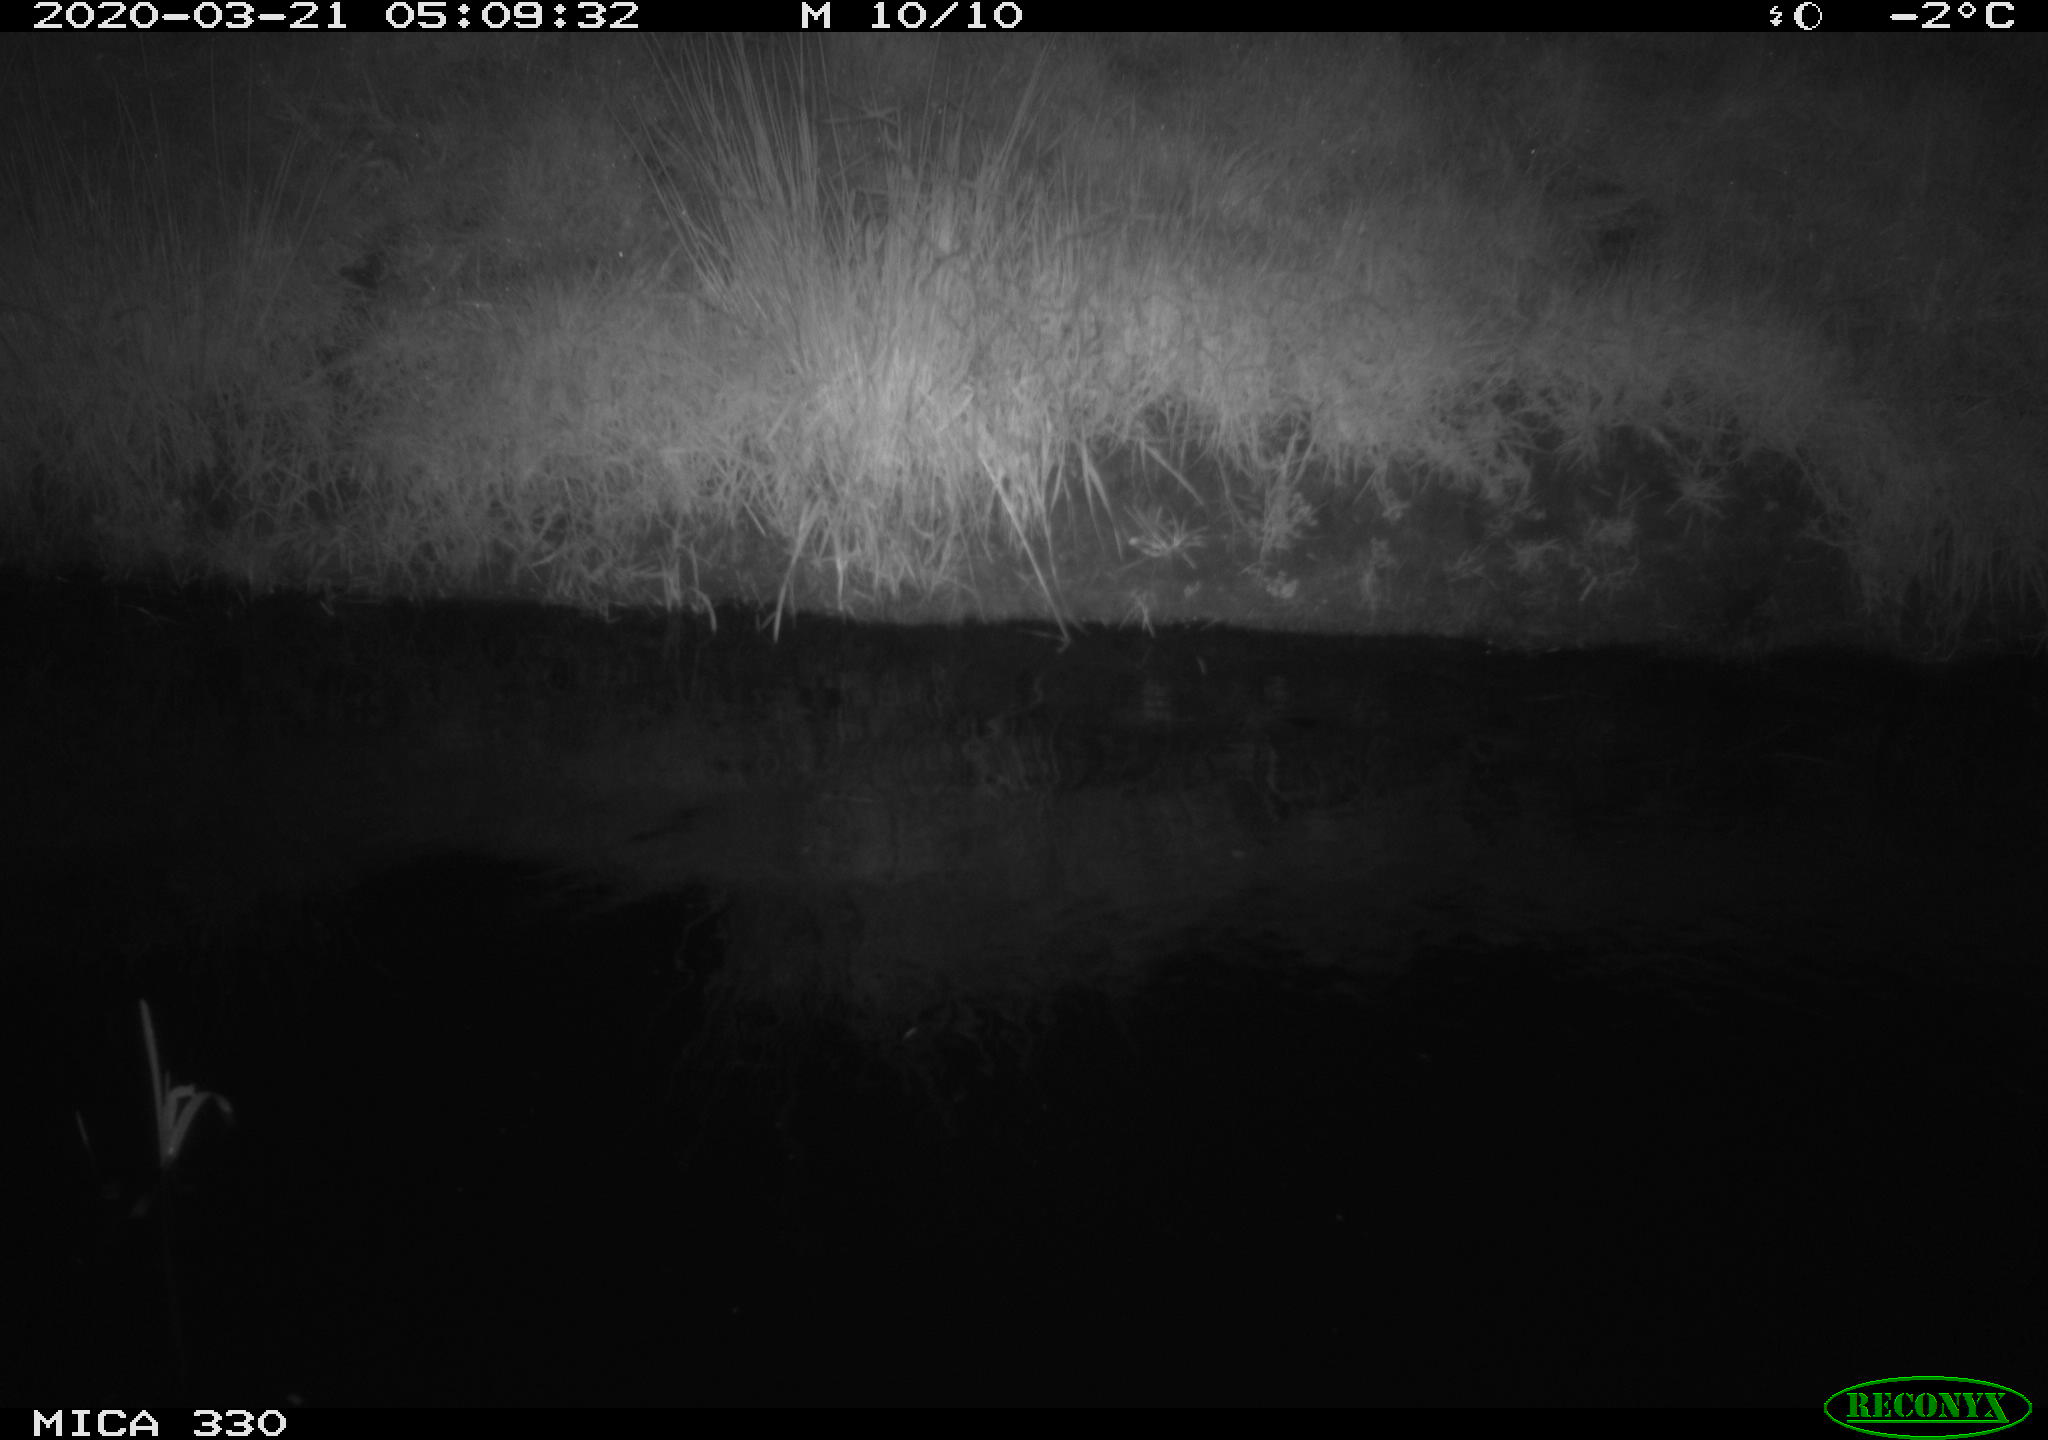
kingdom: Animalia
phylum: Chordata
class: Aves
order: Anseriformes
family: Anatidae
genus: Anas
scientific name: Anas platyrhynchos
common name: Mallard
